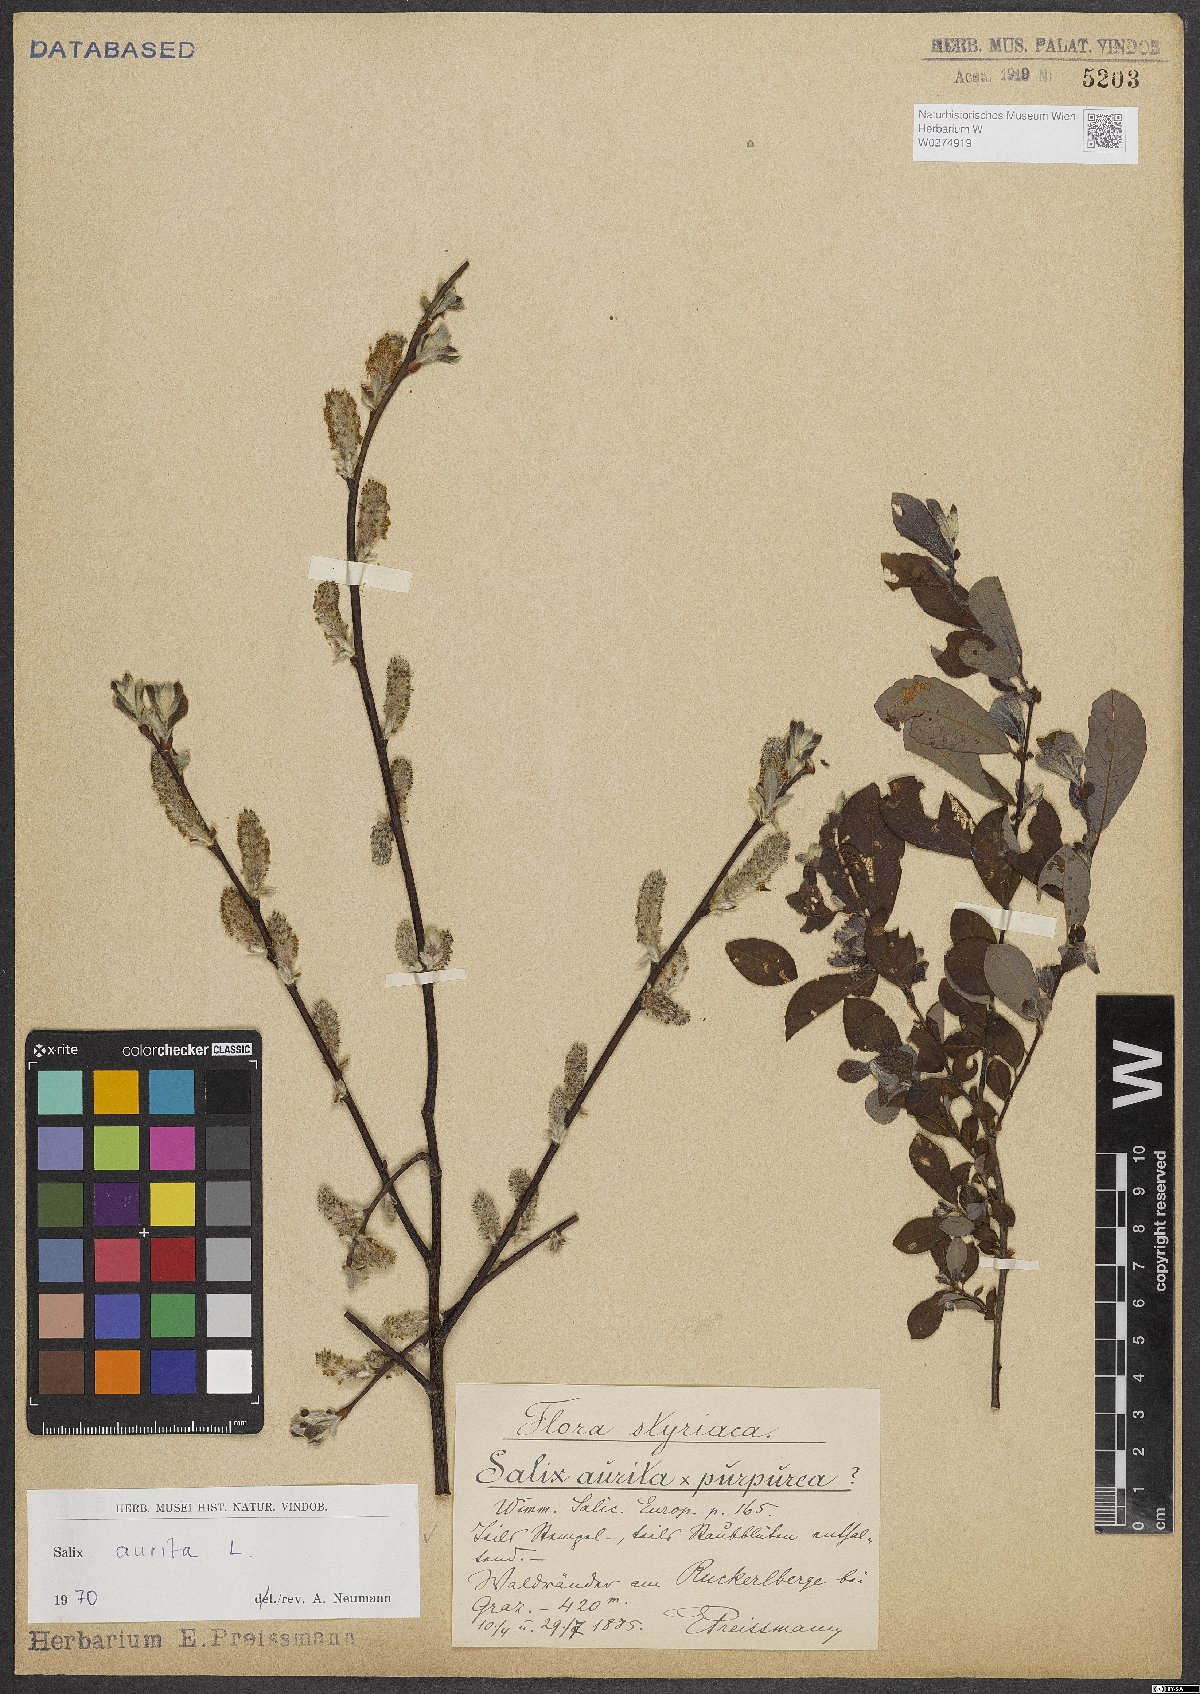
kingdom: Plantae
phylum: Tracheophyta
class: Magnoliopsida
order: Malpighiales
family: Salicaceae
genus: Salix
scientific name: Salix aurita
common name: Eared willow
